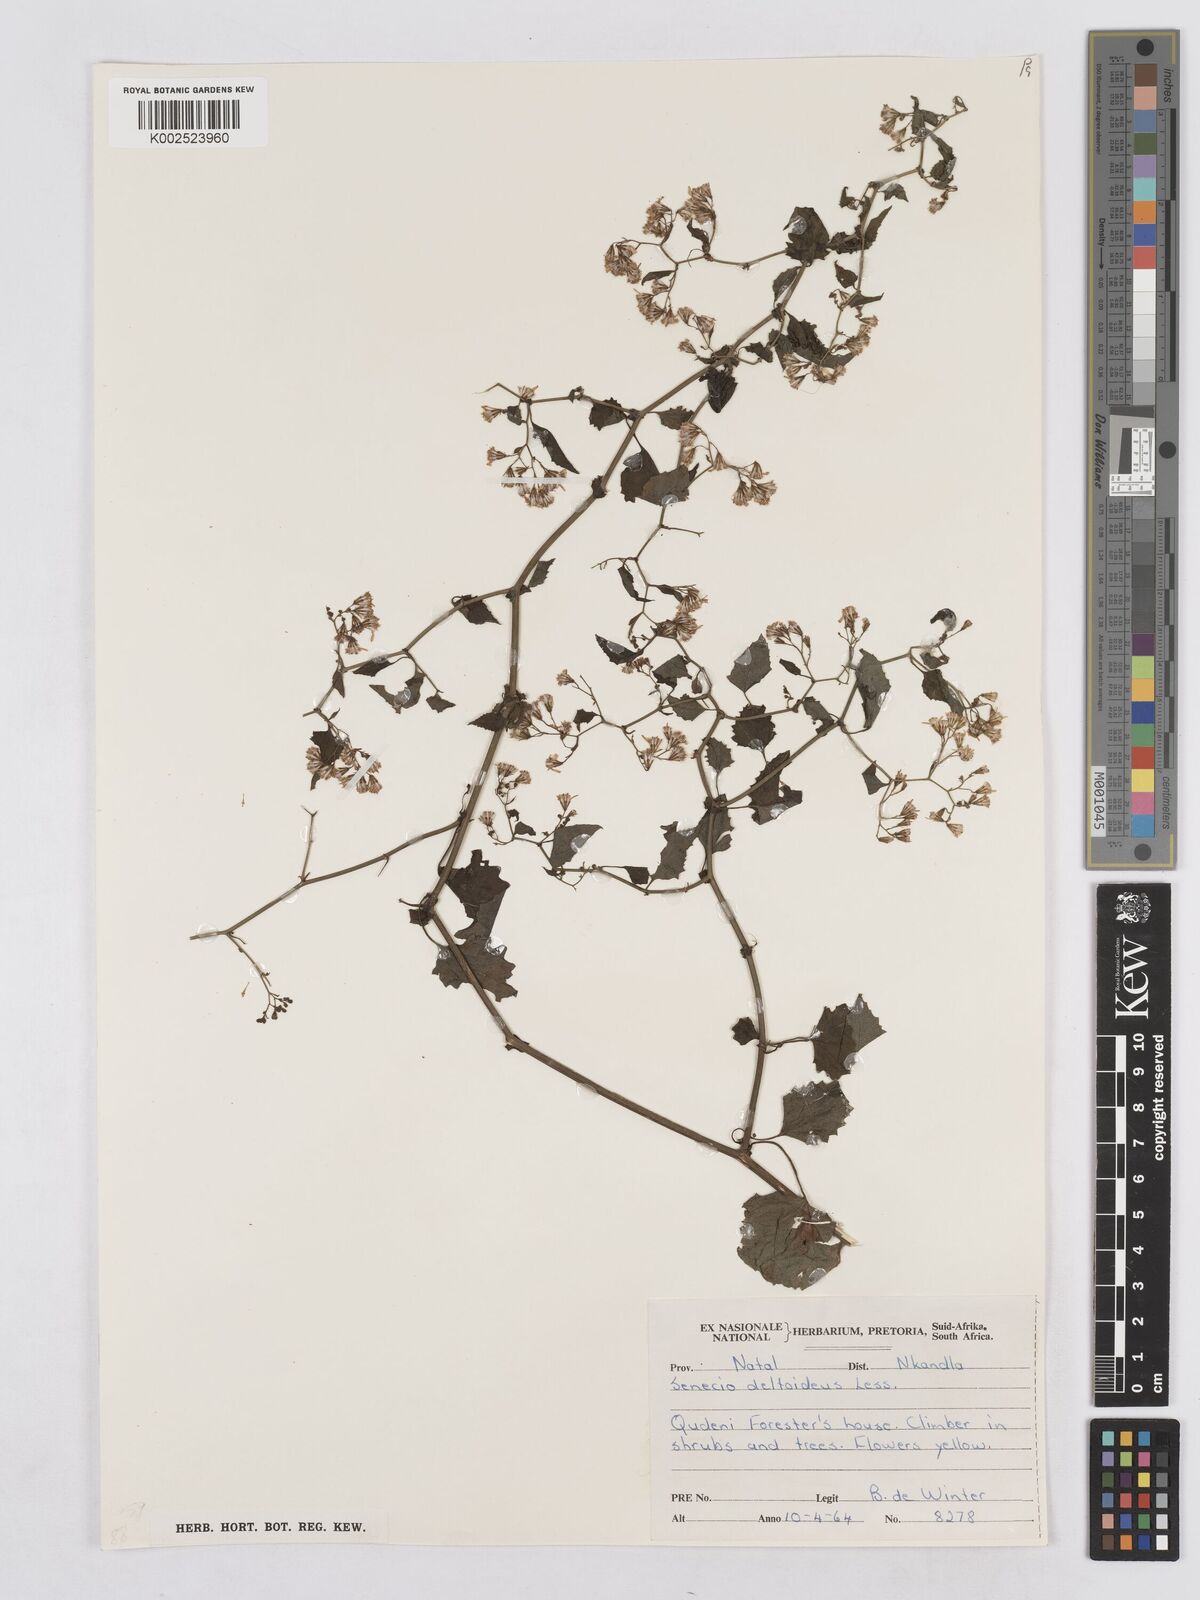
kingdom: Plantae
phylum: Tracheophyta
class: Magnoliopsida
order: Asterales
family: Asteraceae
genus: Senecio
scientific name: Senecio deltoideus
